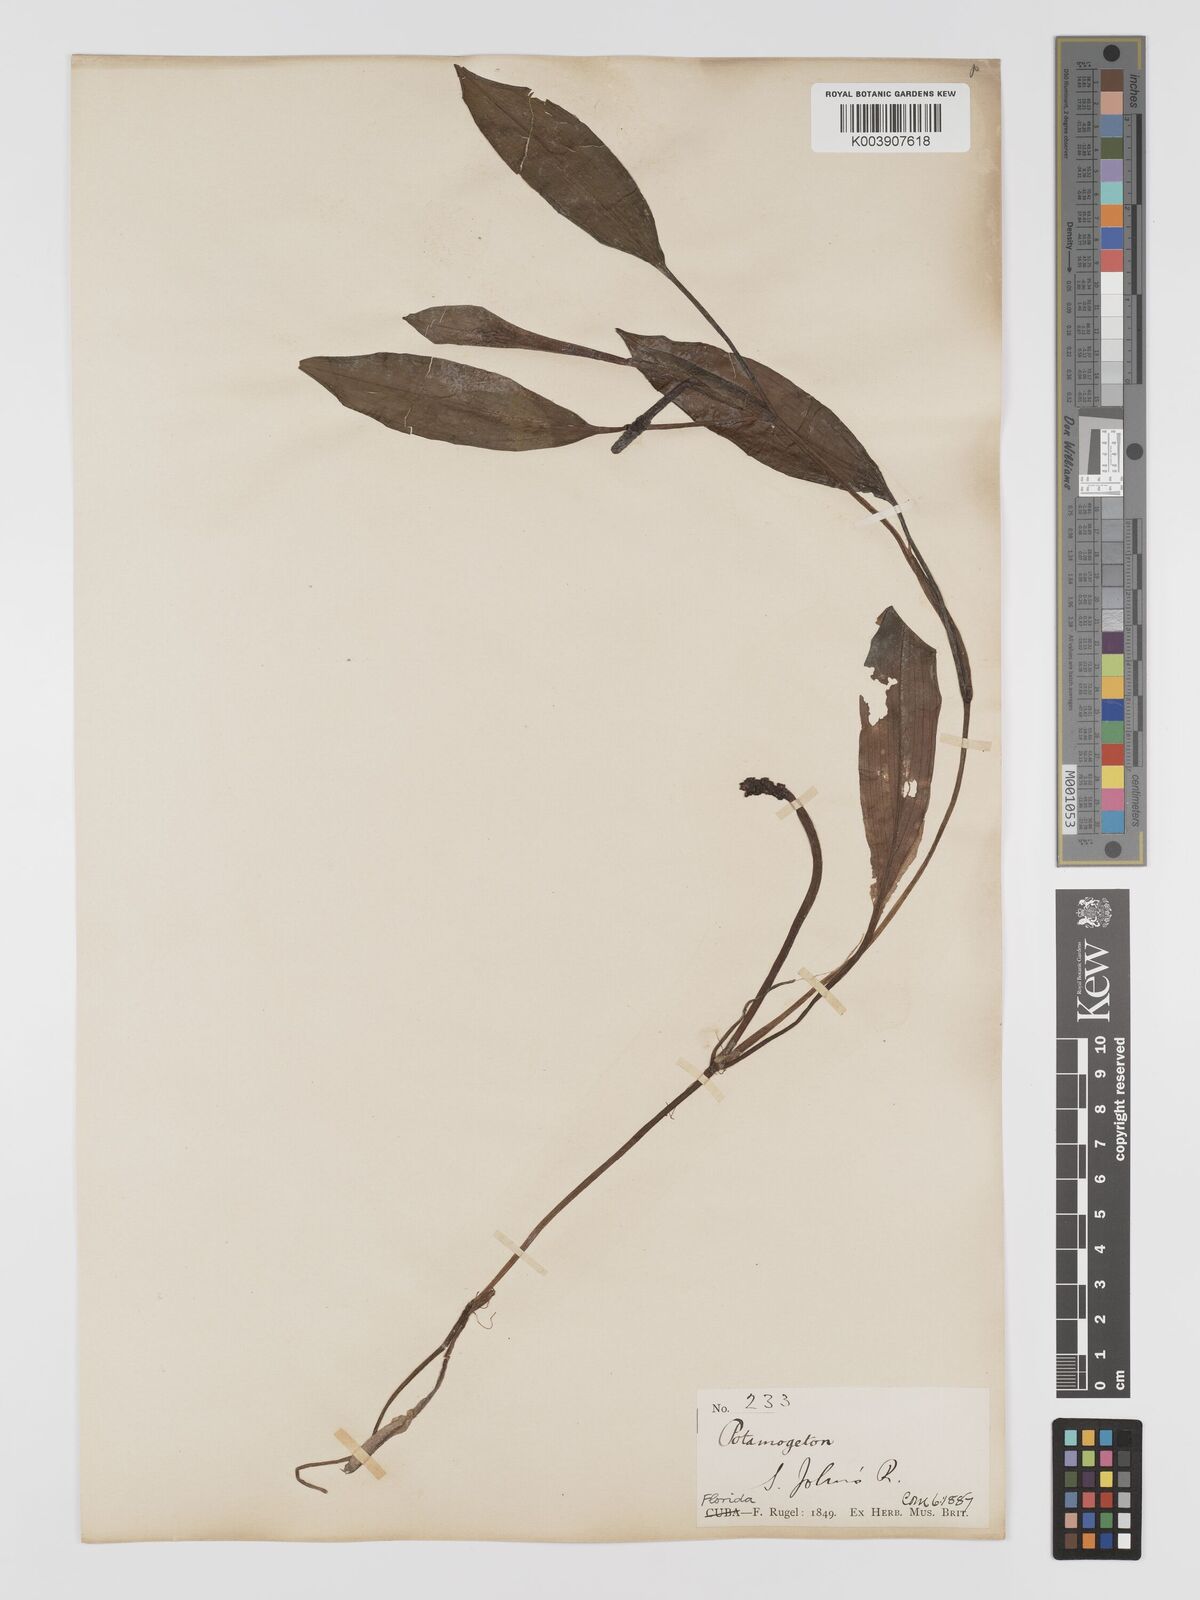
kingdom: Plantae
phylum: Tracheophyta
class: Liliopsida
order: Alismatales
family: Potamogetonaceae
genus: Potamogeton
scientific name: Potamogeton nodosus
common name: Loddon pondweed
